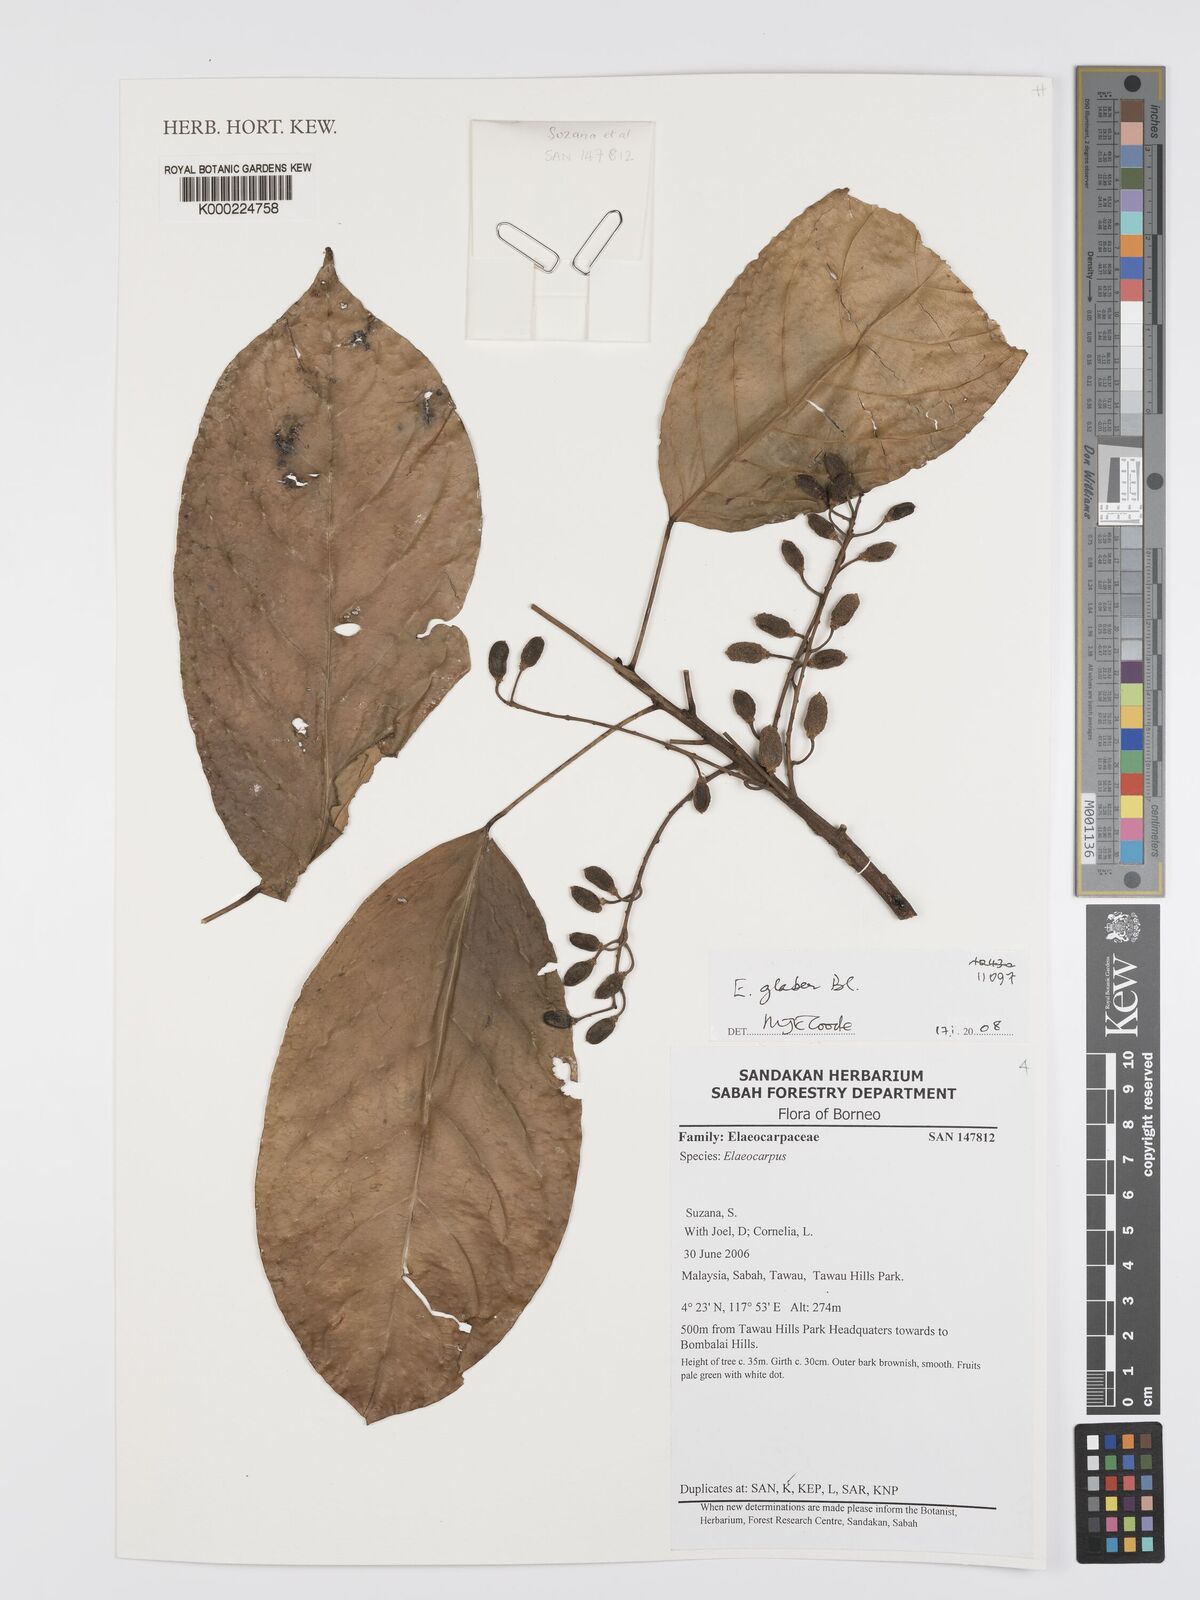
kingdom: Plantae
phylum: Tracheophyta
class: Magnoliopsida
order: Oxalidales
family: Elaeocarpaceae
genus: Elaeocarpus
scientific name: Elaeocarpus
